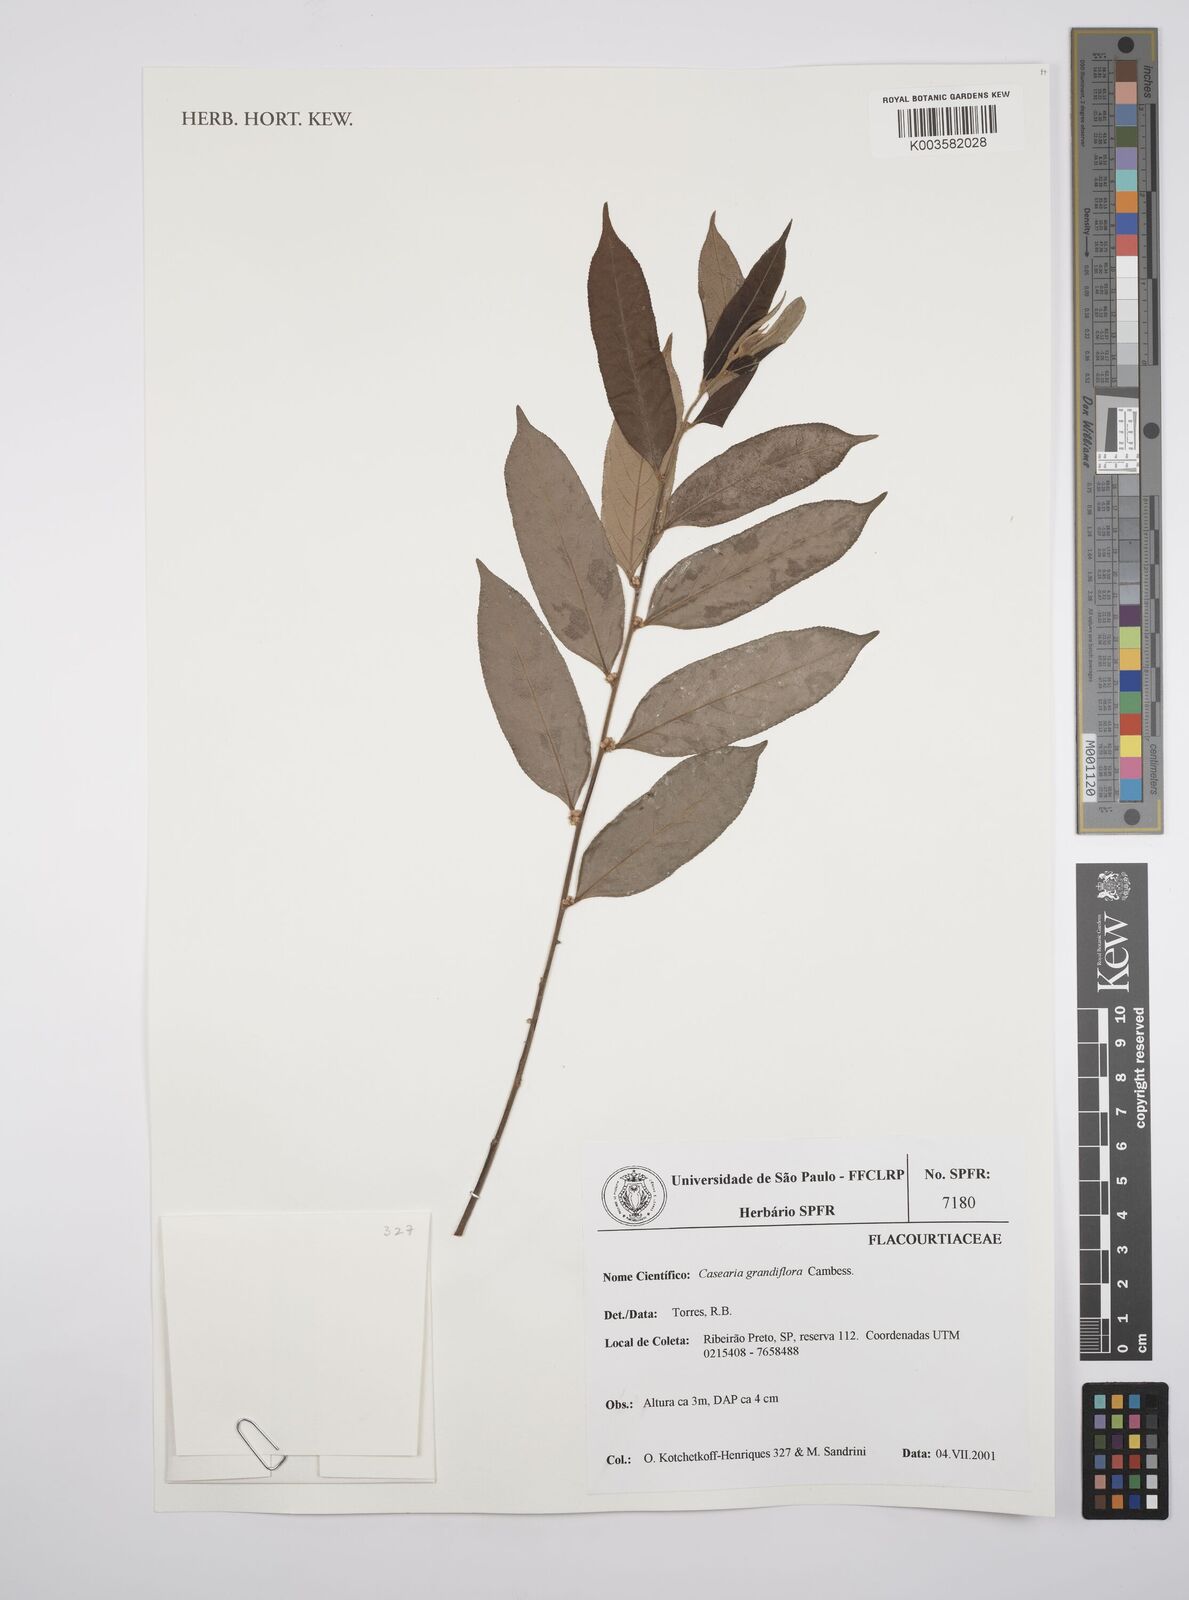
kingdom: Plantae
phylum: Tracheophyta
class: Magnoliopsida
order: Malpighiales
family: Salicaceae
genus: Casearia
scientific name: Casearia grandiflora
